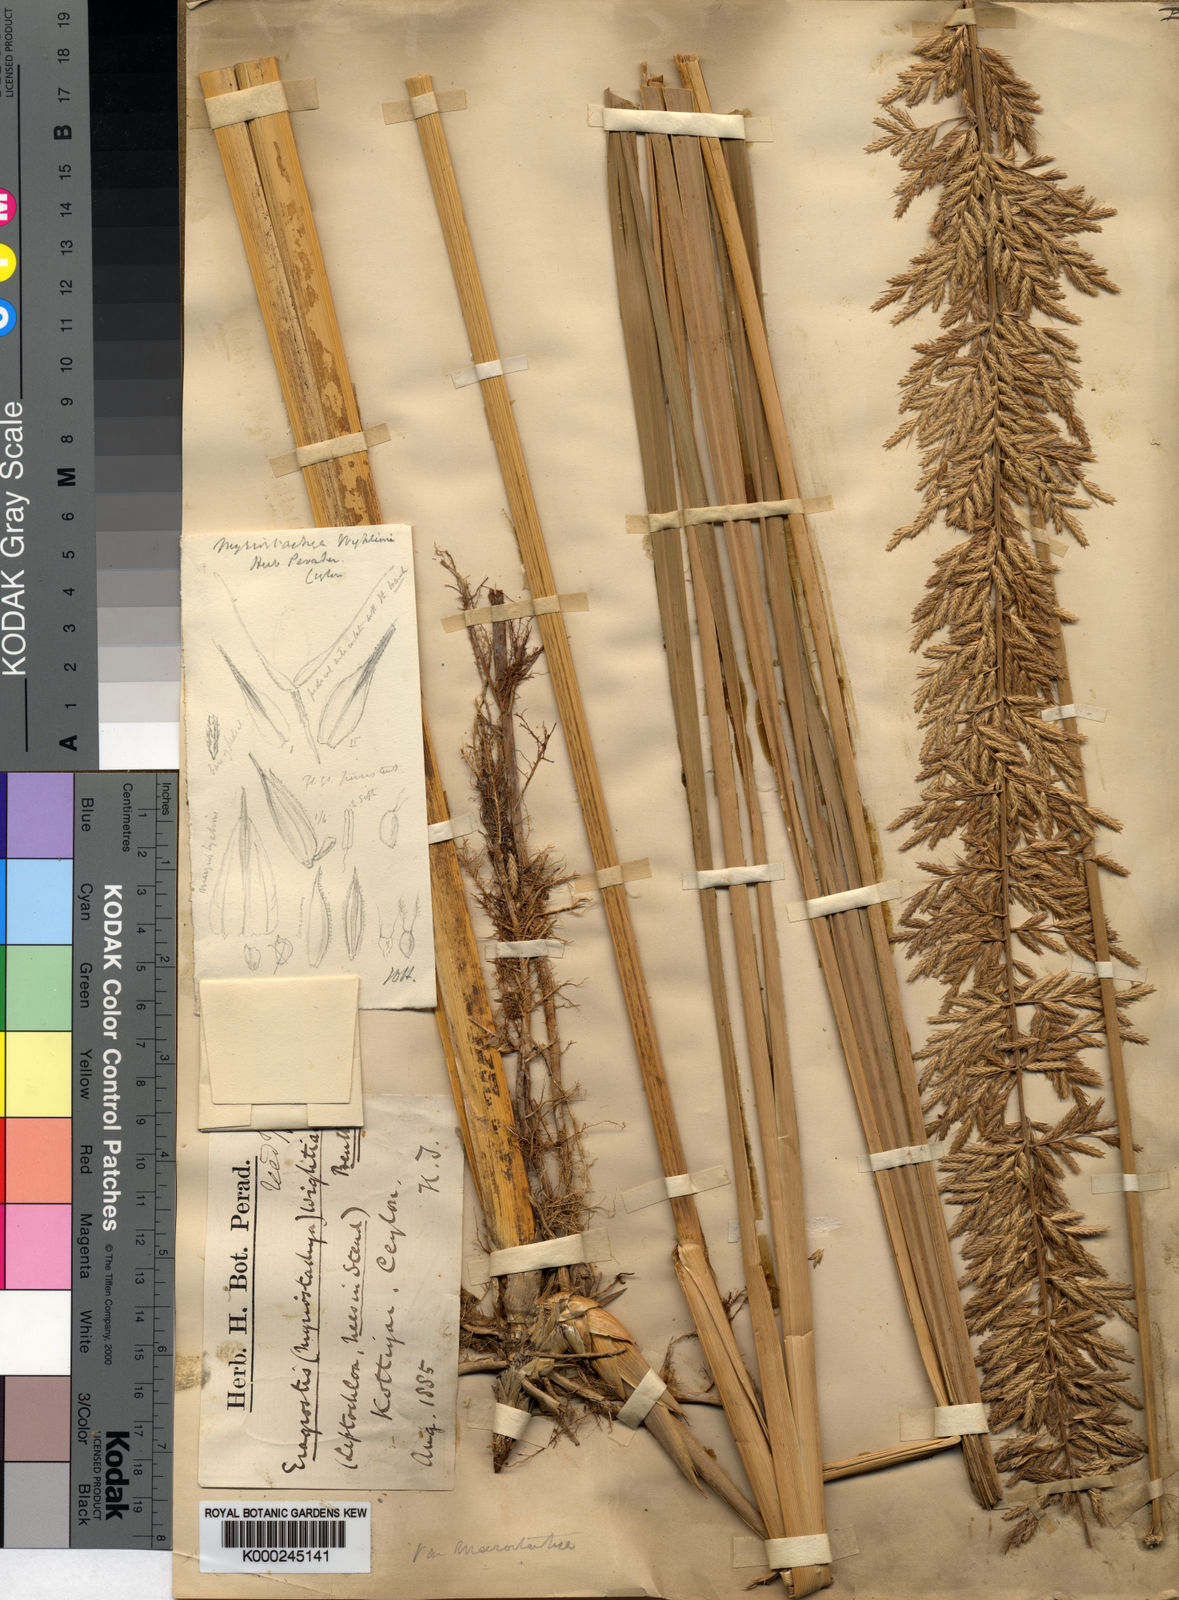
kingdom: Plantae
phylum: Tracheophyta
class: Liliopsida
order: Poales
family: Poaceae
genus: Myriostachya
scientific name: Myriostachya wightiana
